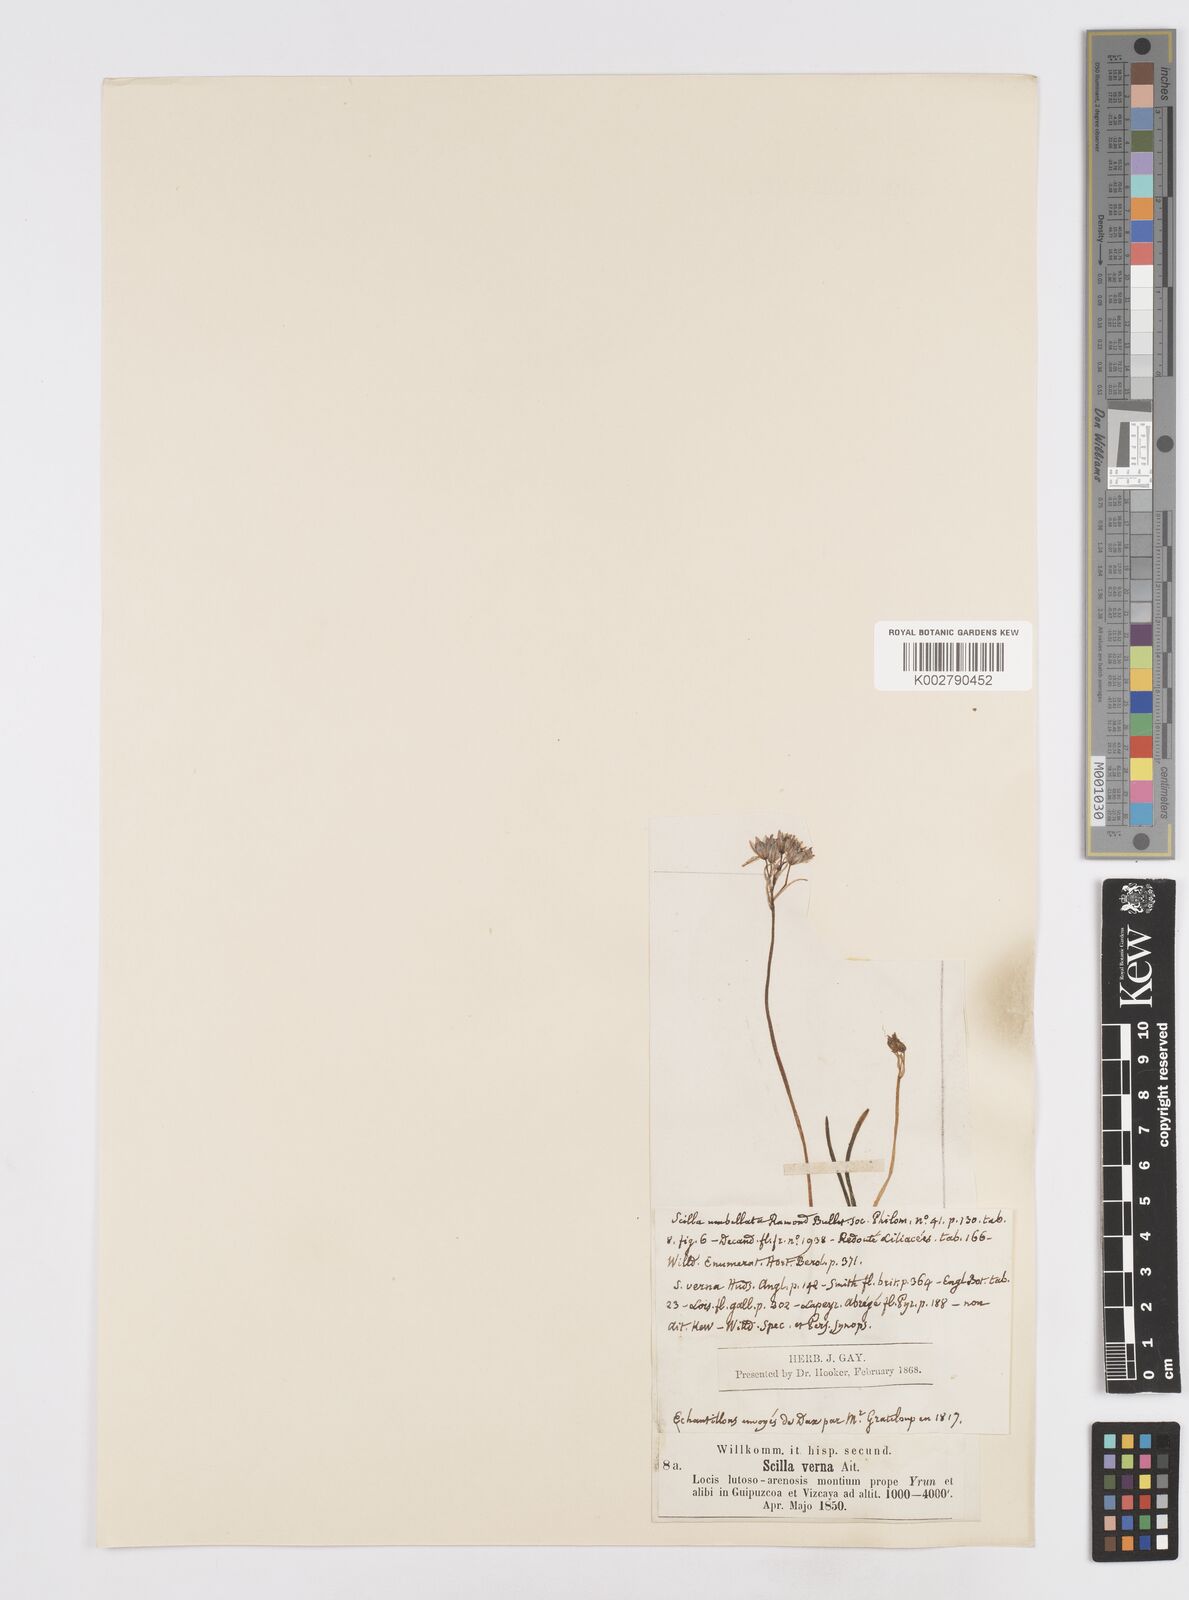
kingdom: Plantae
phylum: Tracheophyta
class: Liliopsida
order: Asparagales
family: Asparagaceae
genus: Scilla
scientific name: Scilla verna
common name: Spring squill
